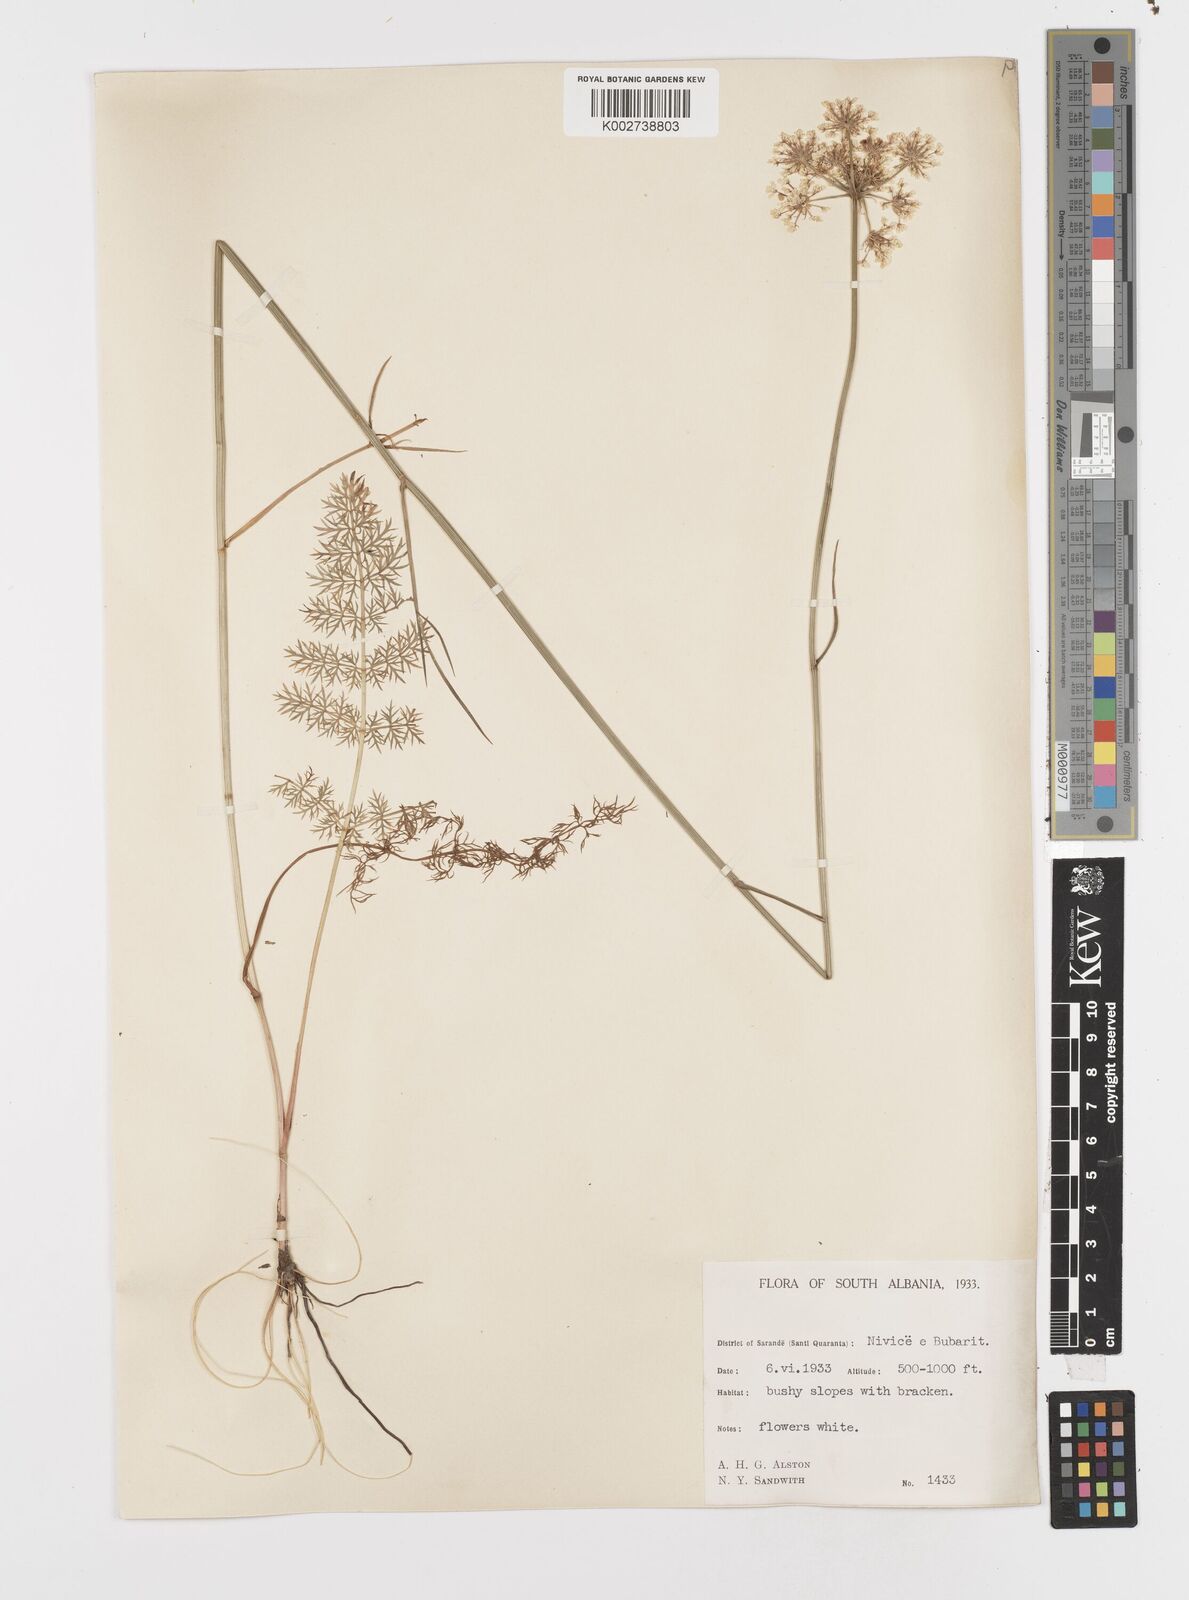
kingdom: Plantae
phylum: Tracheophyta
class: Magnoliopsida
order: Apiales
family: Apiaceae
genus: Oenanthe
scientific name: Oenanthe
